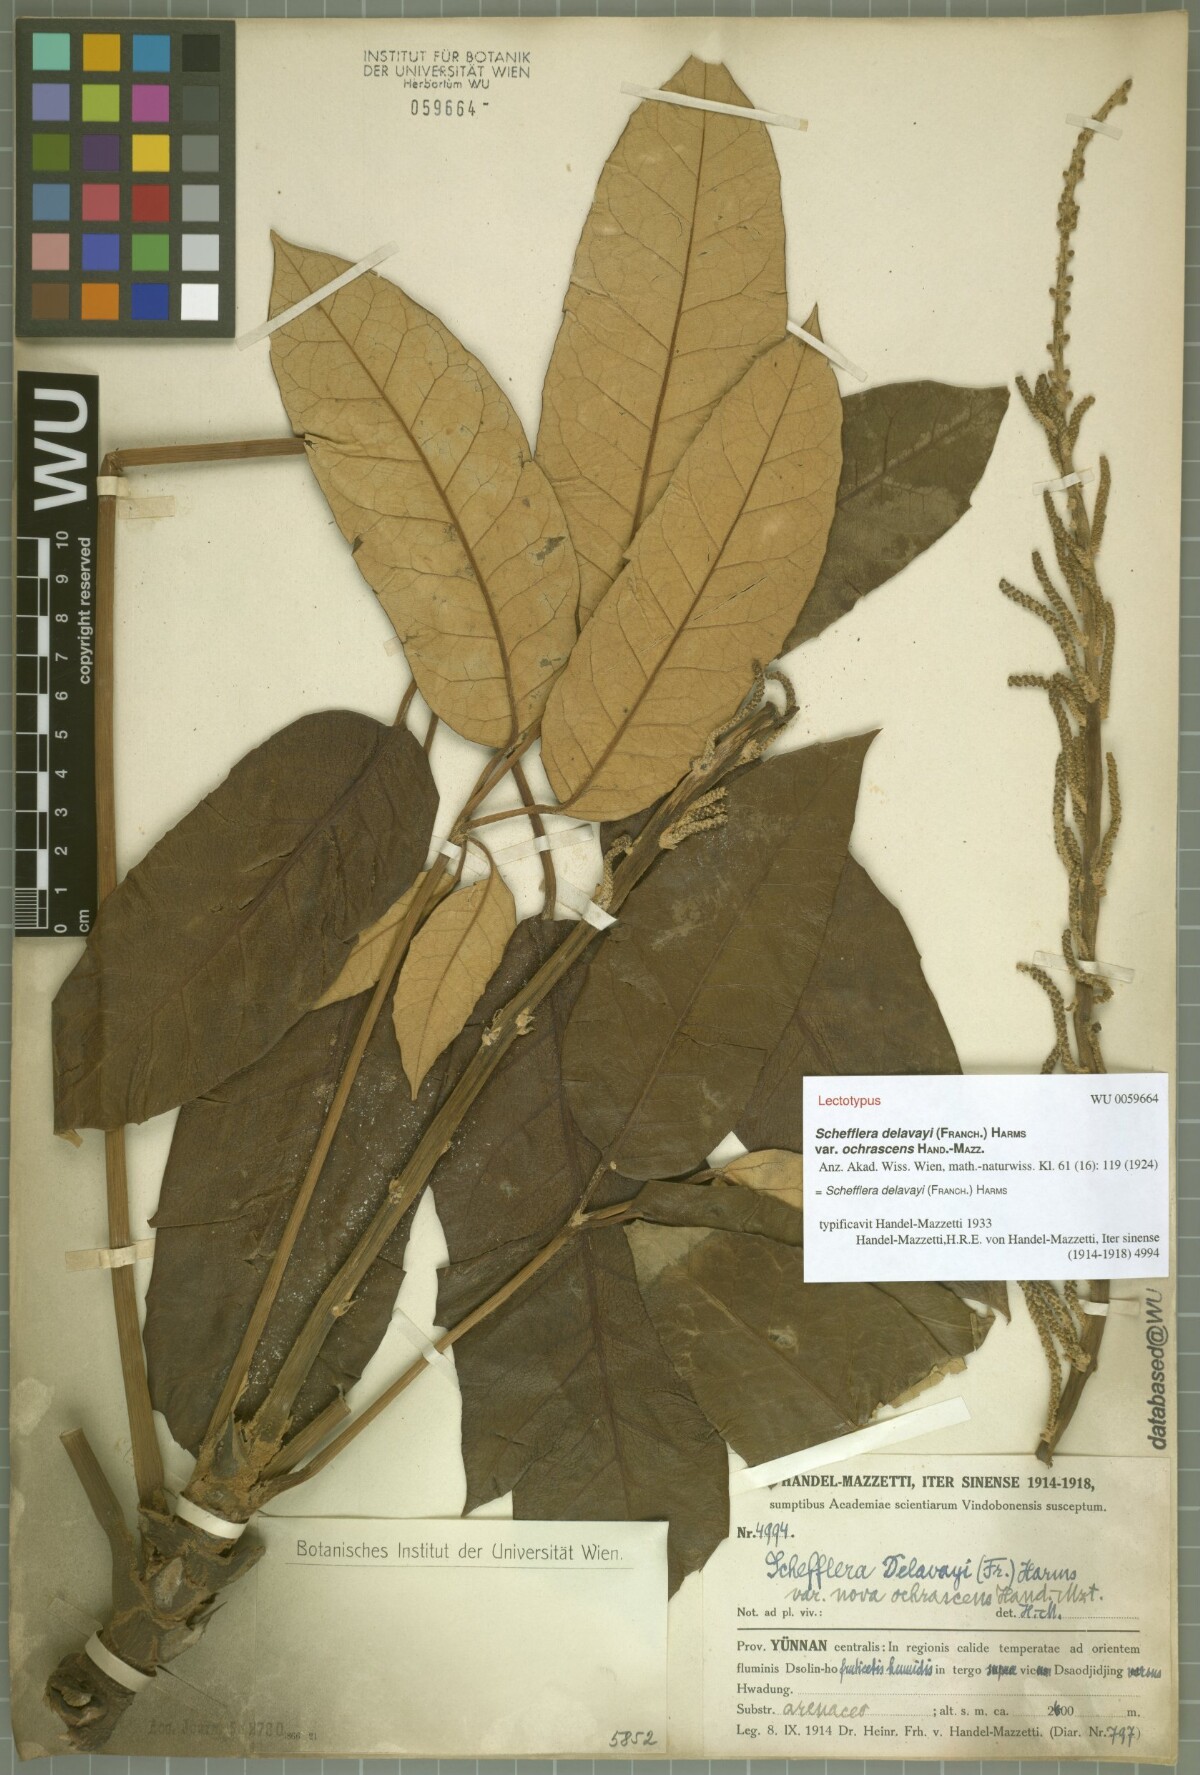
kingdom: Plantae
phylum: Tracheophyta
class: Magnoliopsida
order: Apiales
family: Araliaceae
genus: Heptapleurum
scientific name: Heptapleurum delavayi
